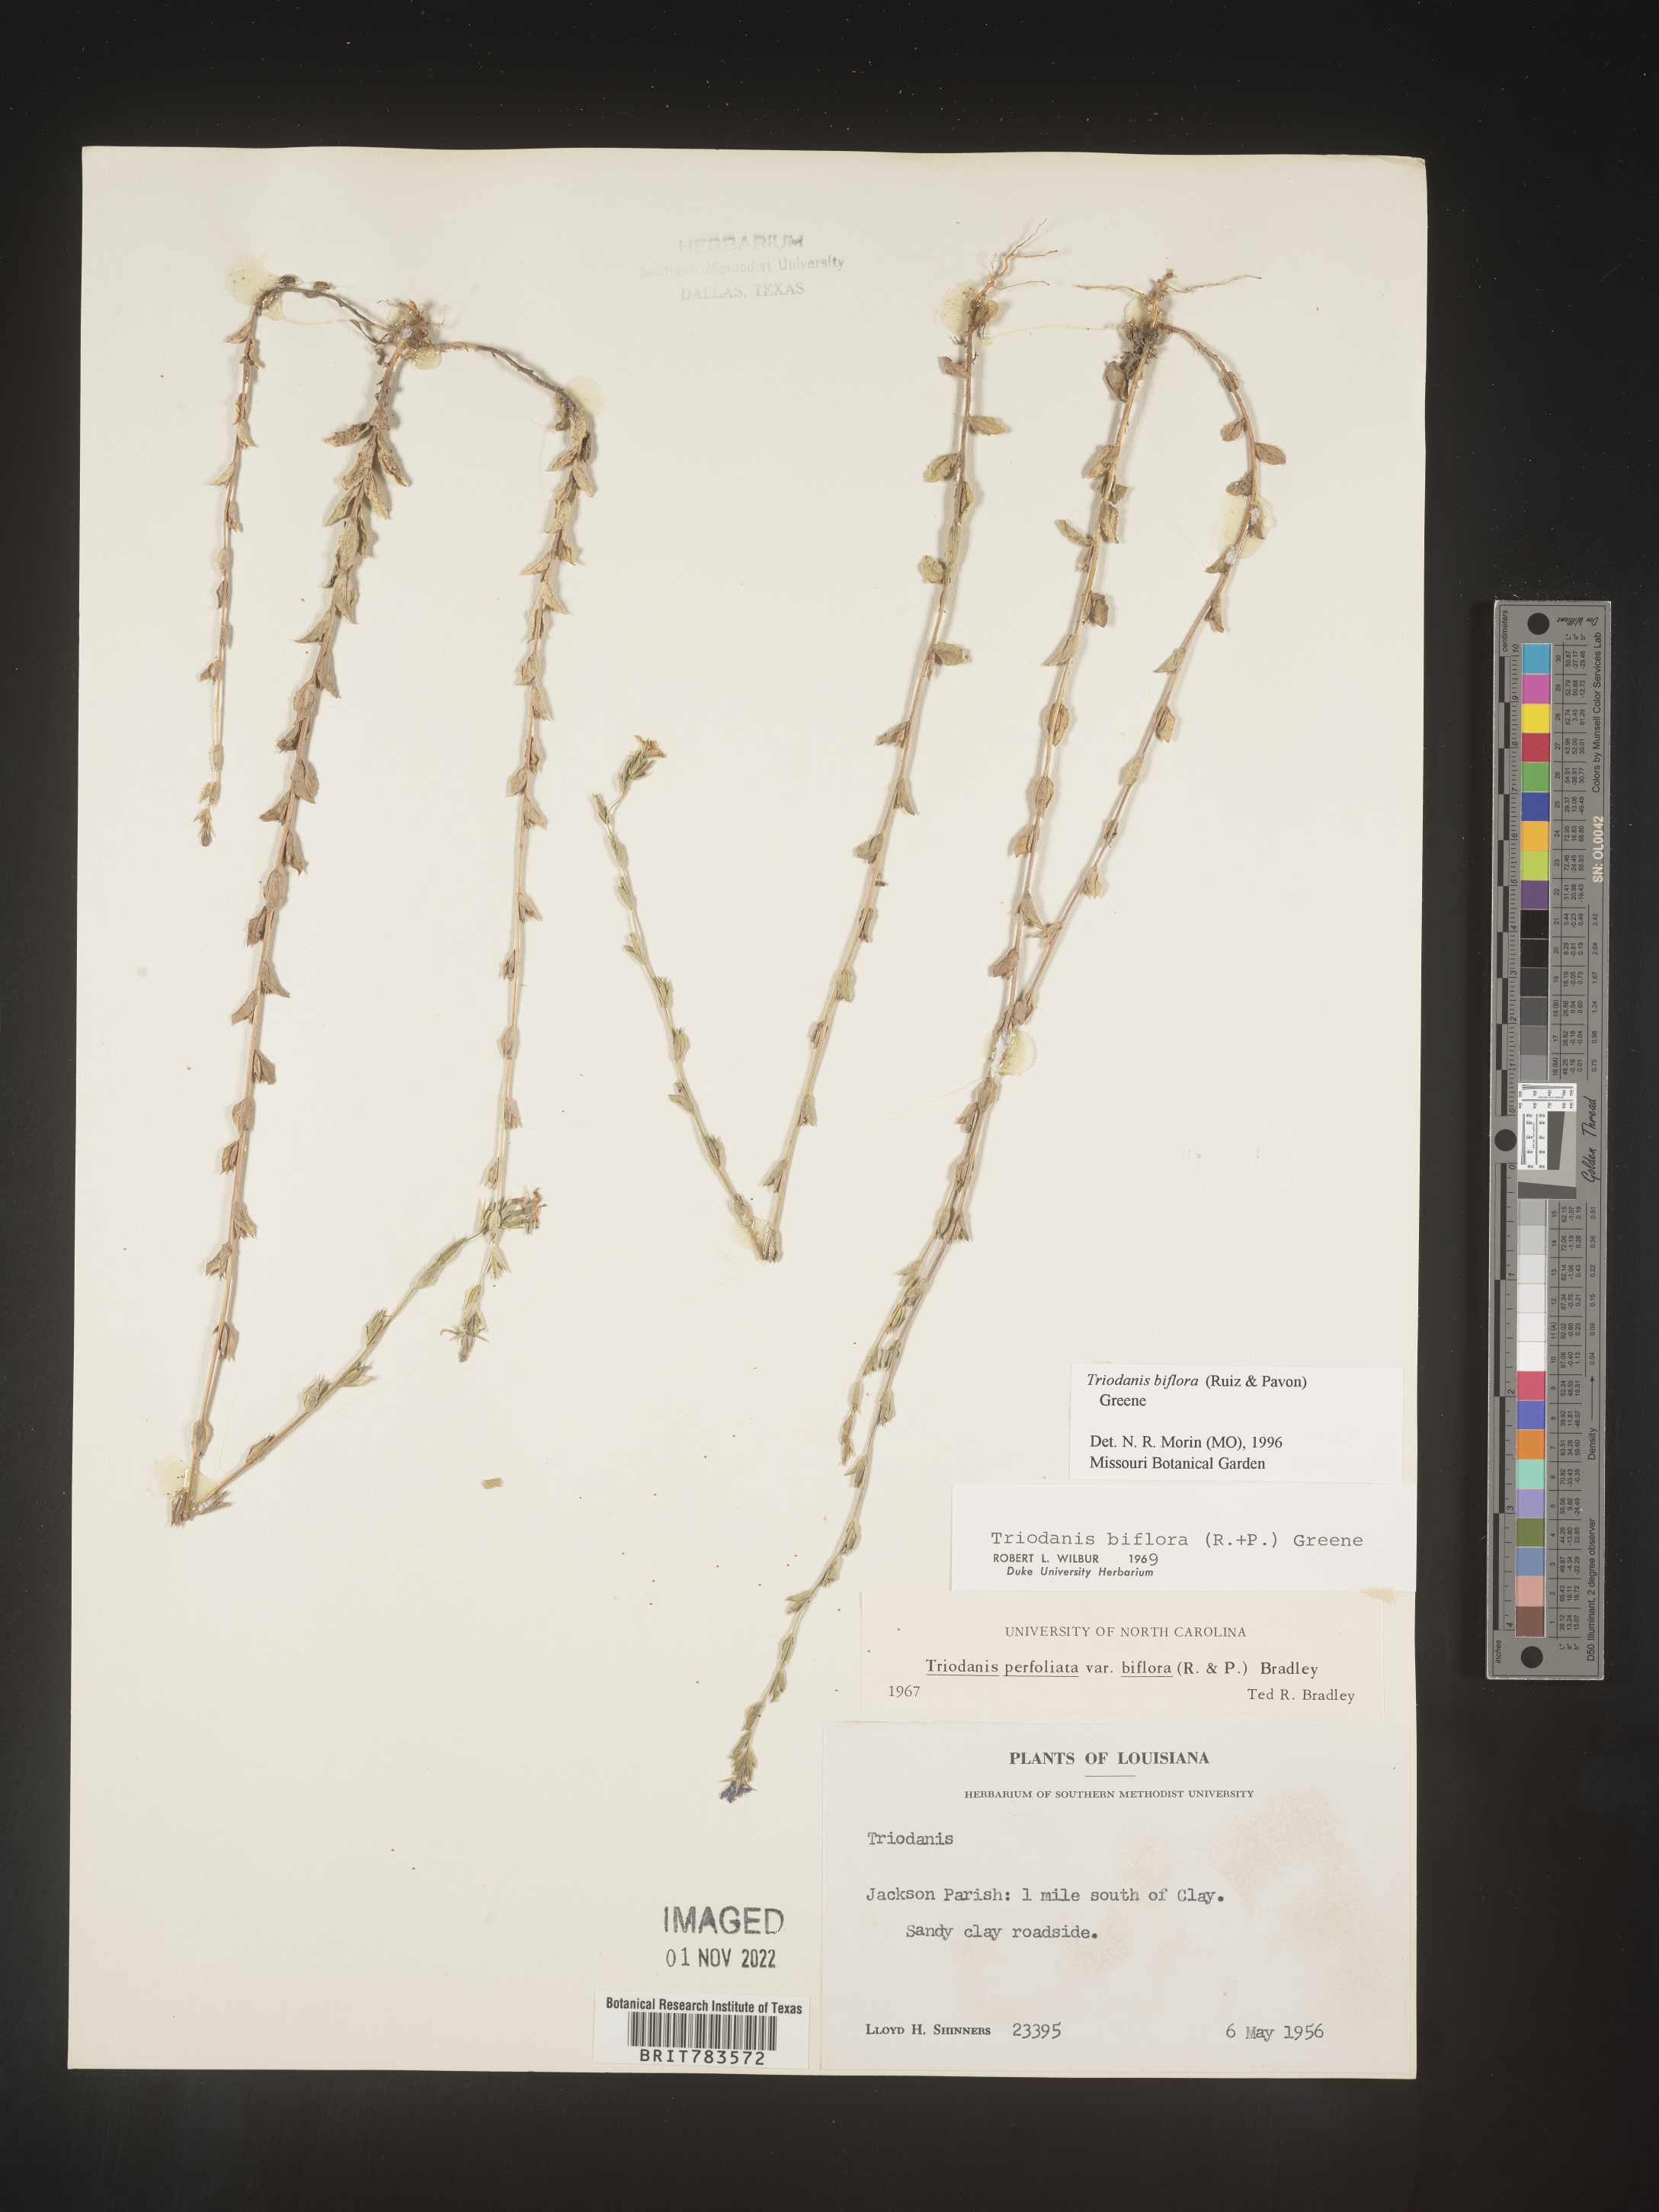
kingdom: Plantae
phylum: Tracheophyta
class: Magnoliopsida
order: Asterales
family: Campanulaceae
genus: Triodanis
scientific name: Triodanis perfoliata
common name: Clasping venus' looking-glass
